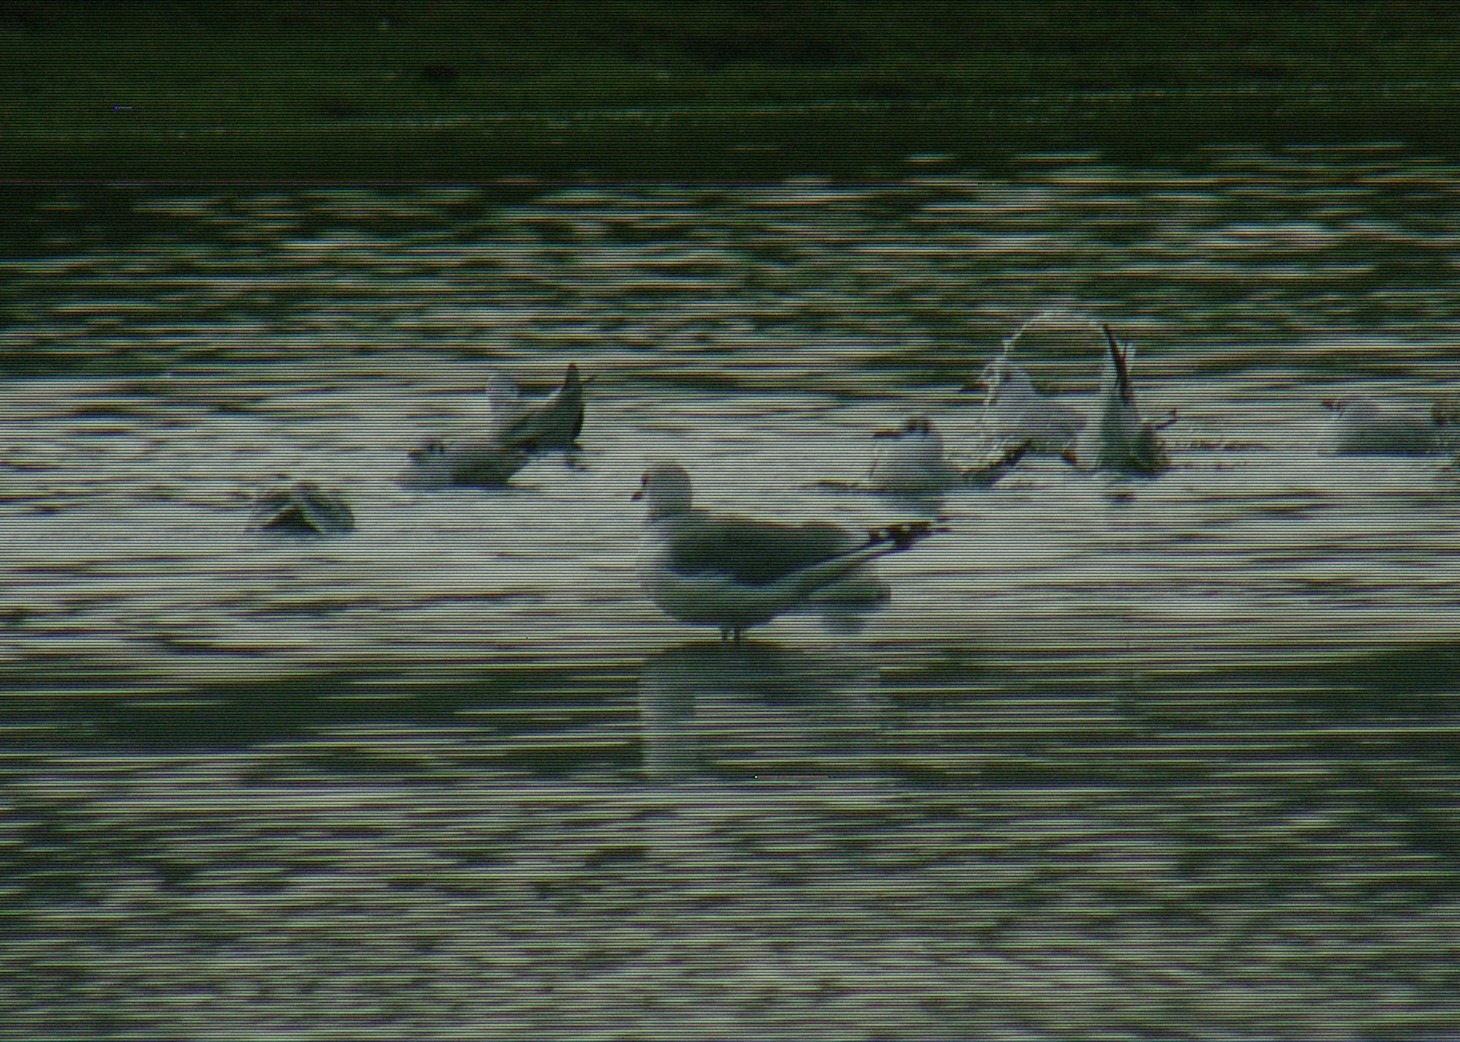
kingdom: Animalia
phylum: Chordata
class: Aves
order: Charadriiformes
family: Laridae
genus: Larus
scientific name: Larus canus
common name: Stormmåge
